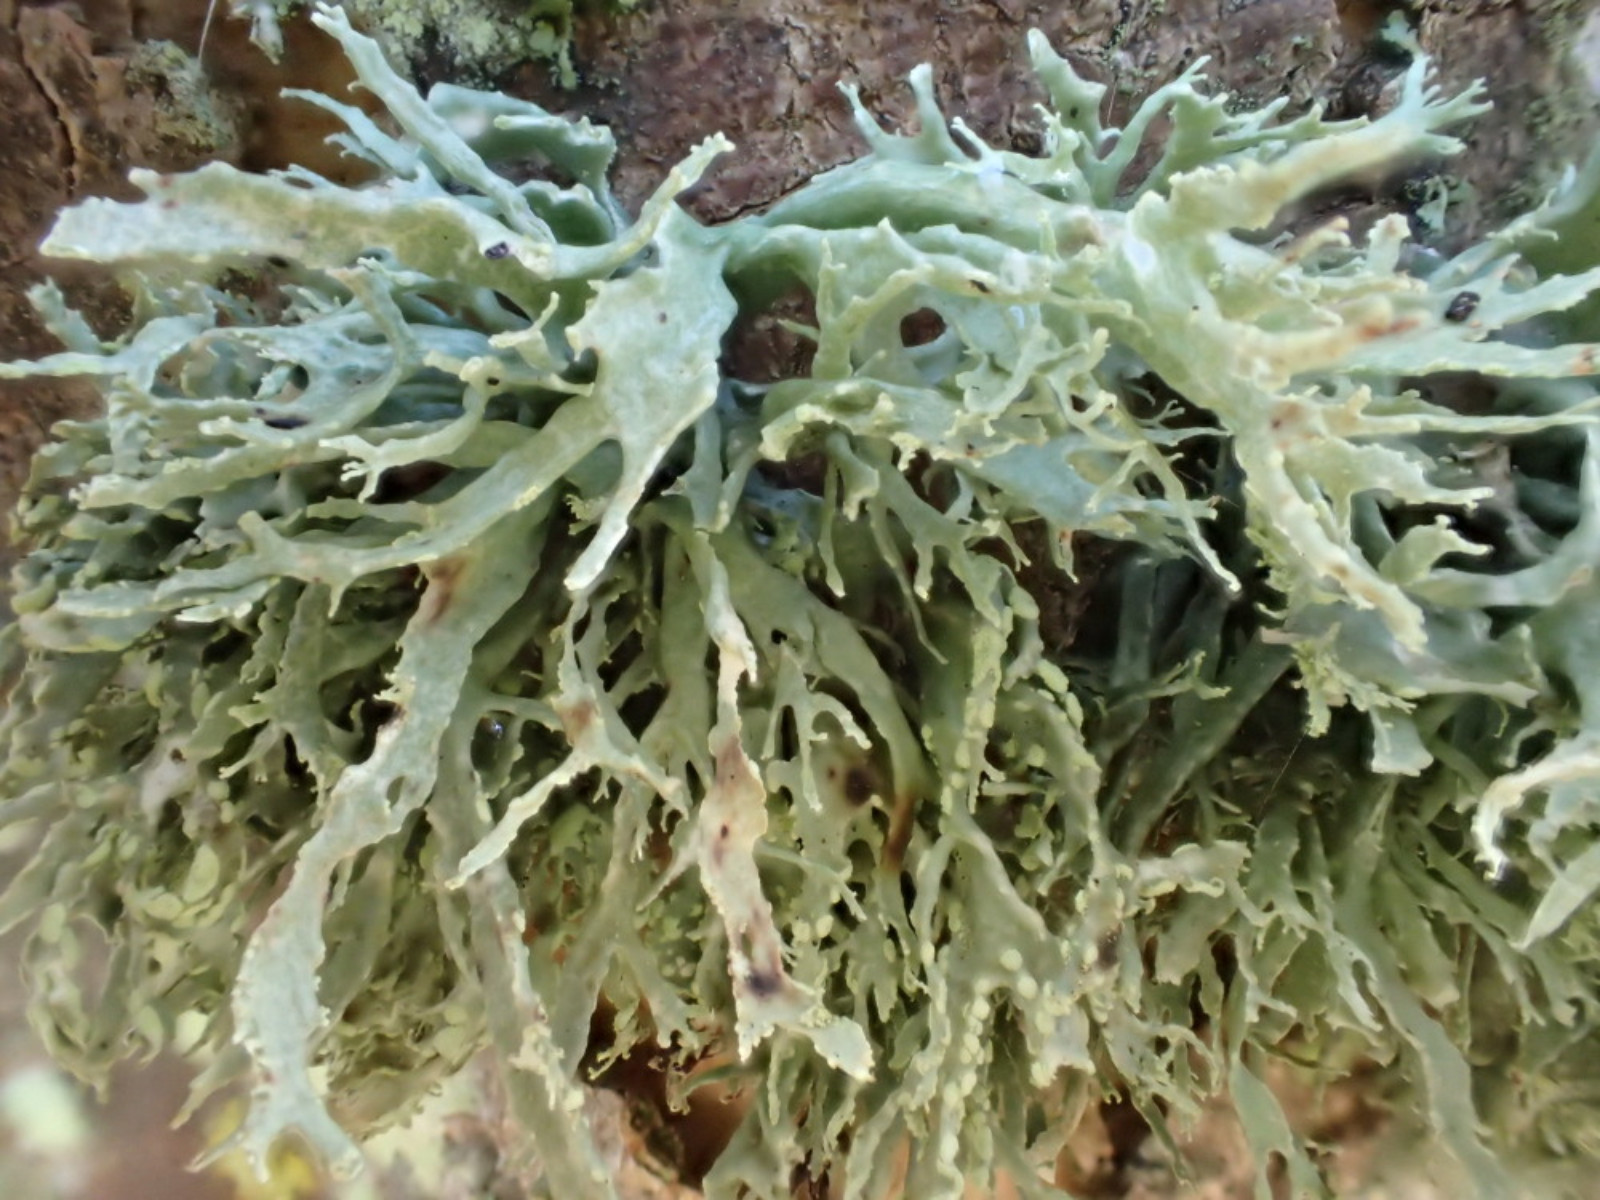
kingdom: Fungi
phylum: Ascomycota
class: Lecanoromycetes
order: Lecanorales
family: Ramalinaceae
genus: Ramalina
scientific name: Ramalina farinacea
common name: melet grenlav
